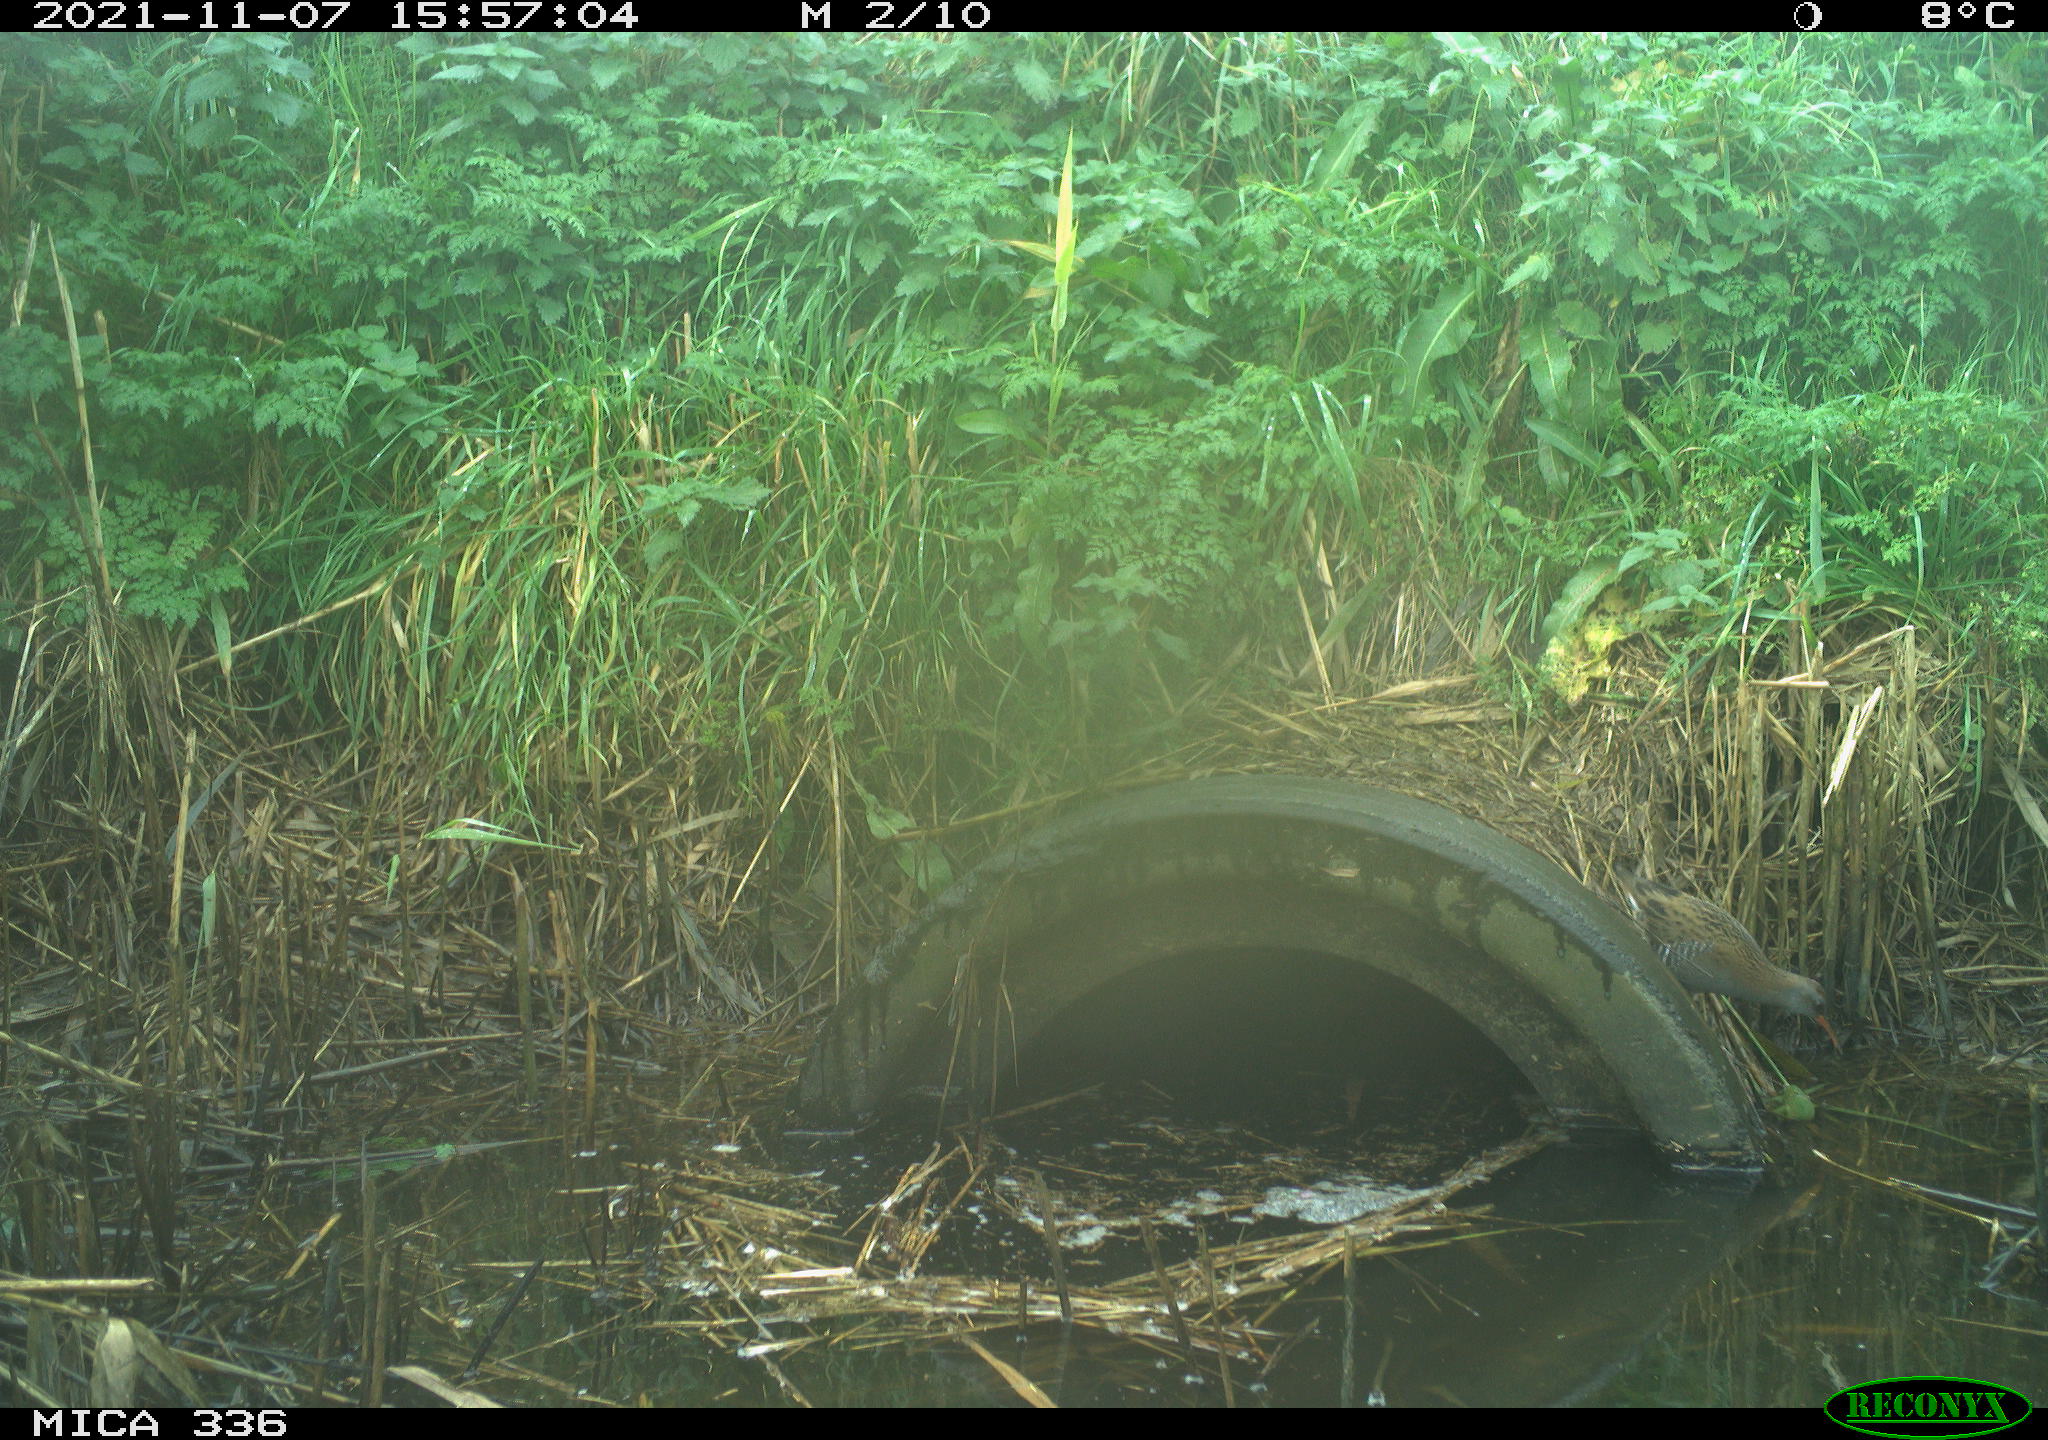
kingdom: Animalia
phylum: Chordata
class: Aves
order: Gruiformes
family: Rallidae
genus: Gallinula
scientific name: Gallinula chloropus
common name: Common moorhen
